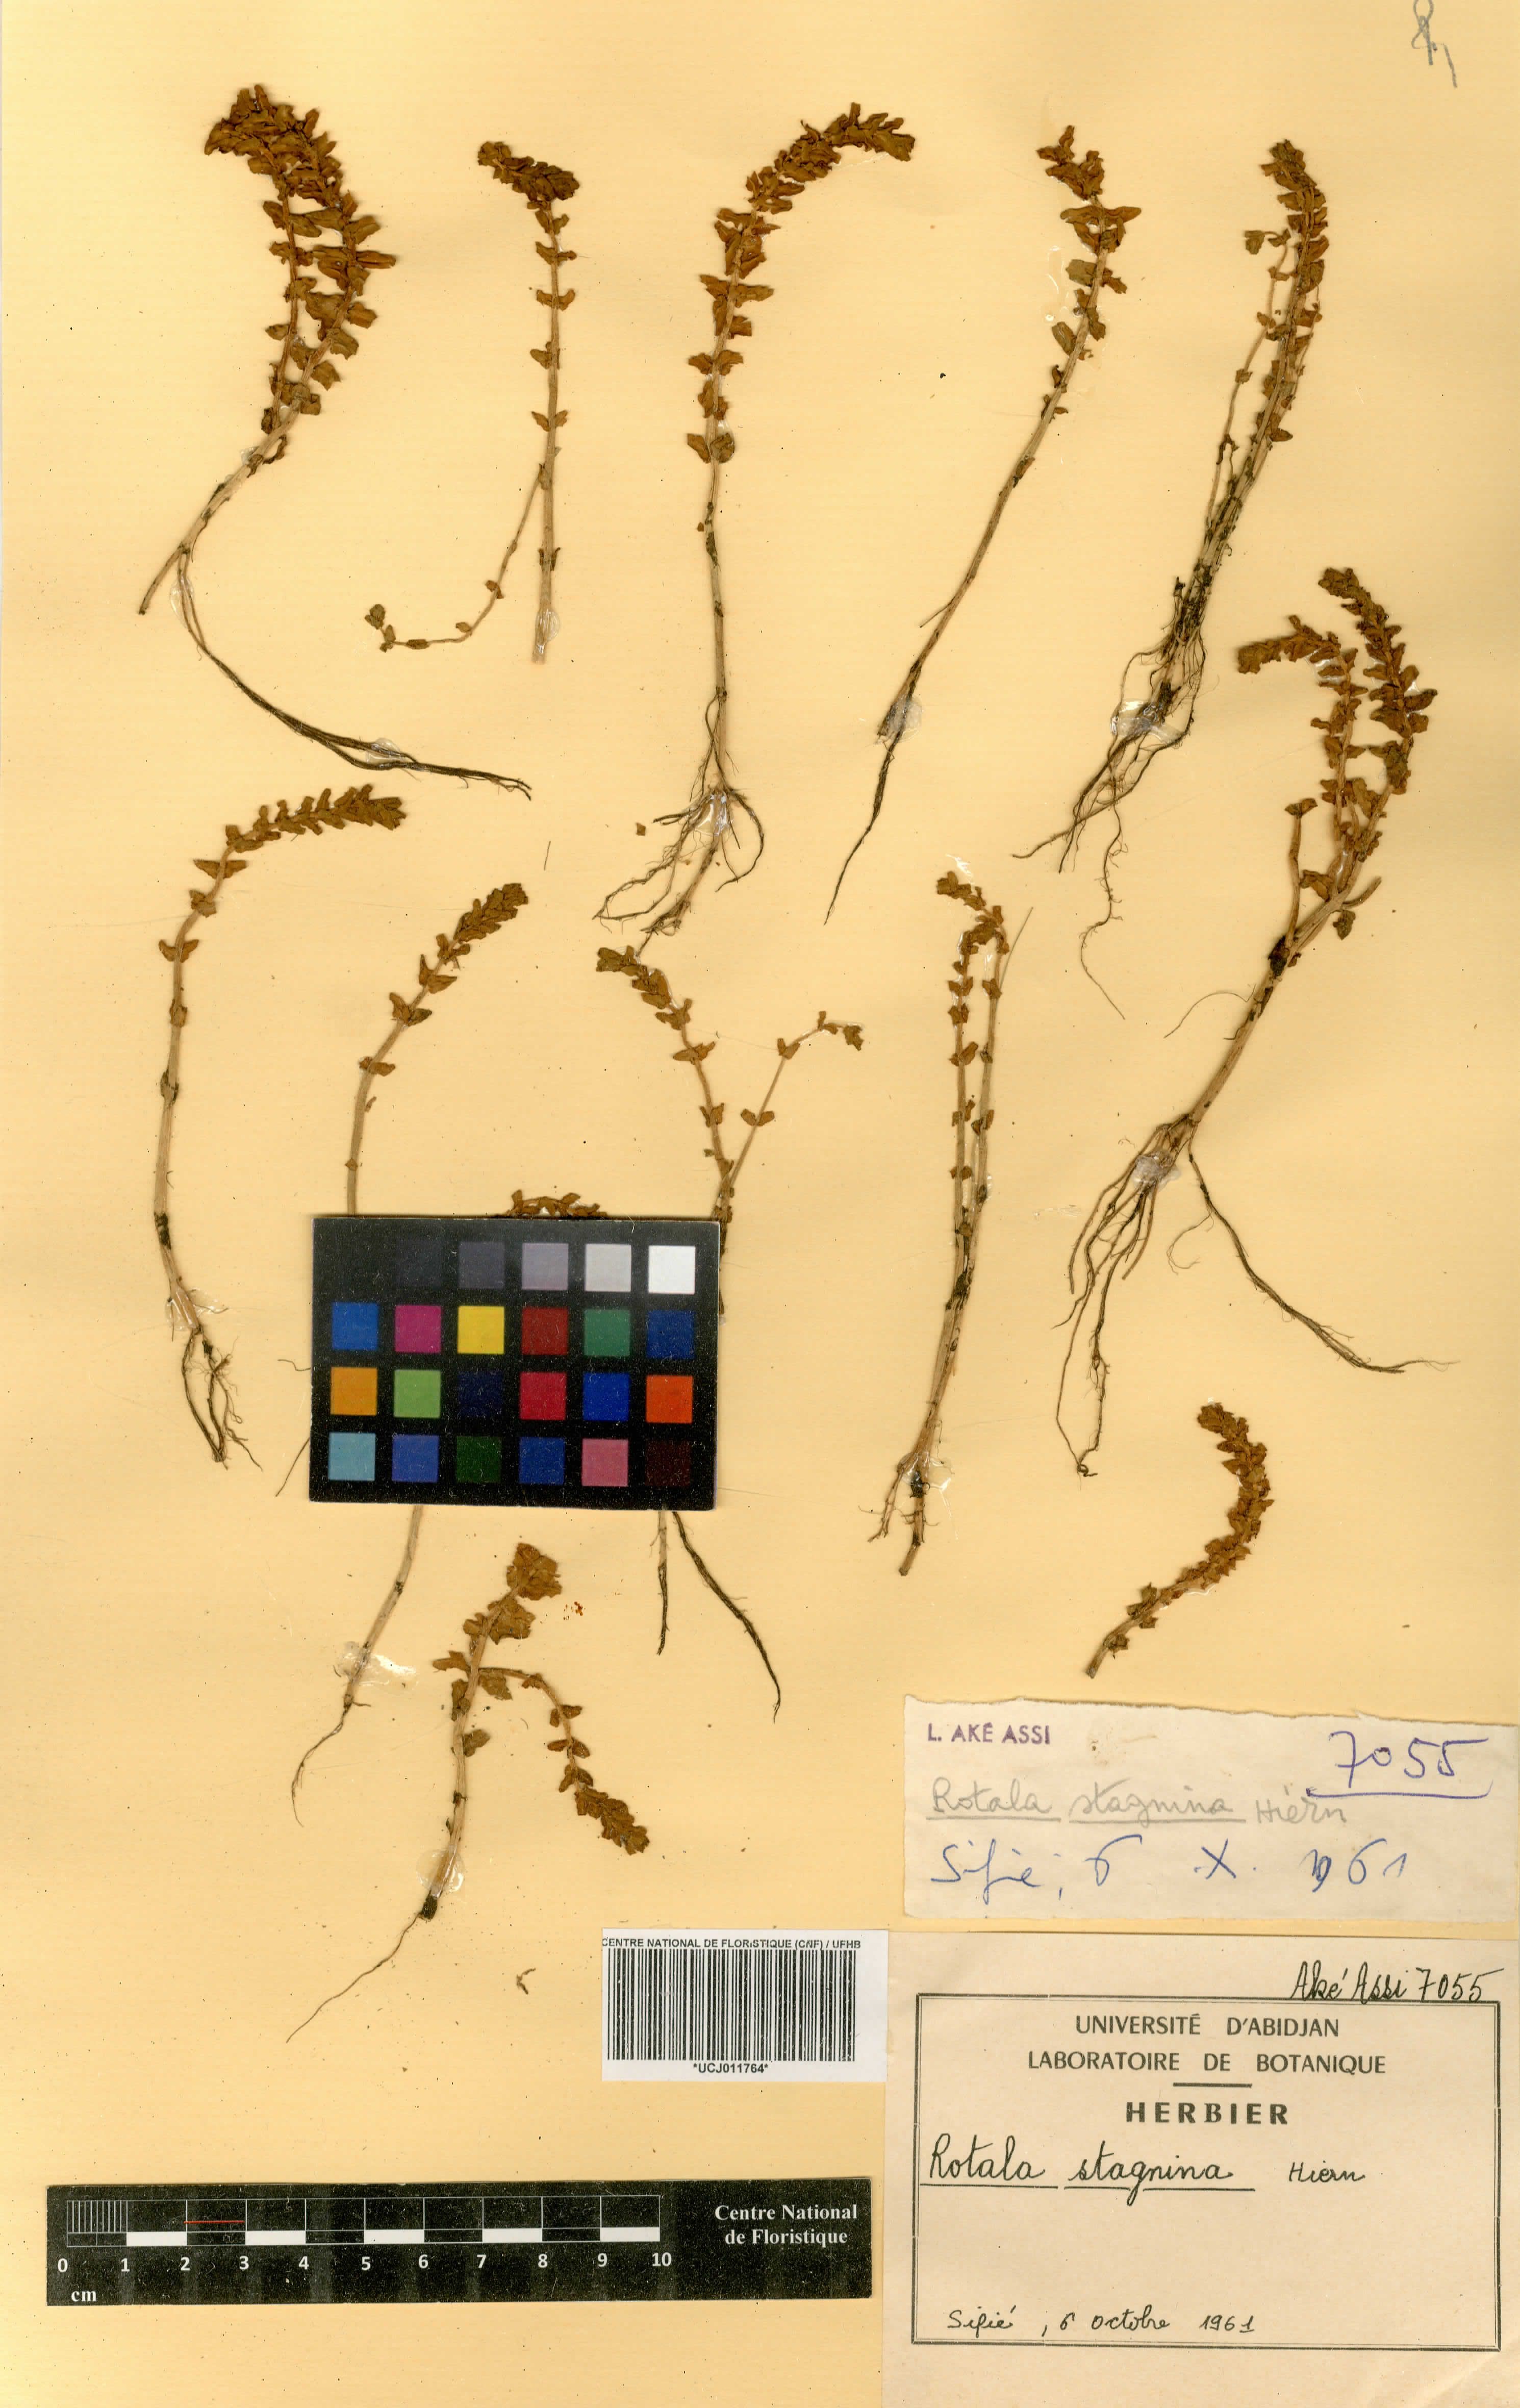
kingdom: Plantae
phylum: Tracheophyta
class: Magnoliopsida
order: Myrtales
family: Lythraceae
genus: Rotala
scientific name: Rotala stagnina
